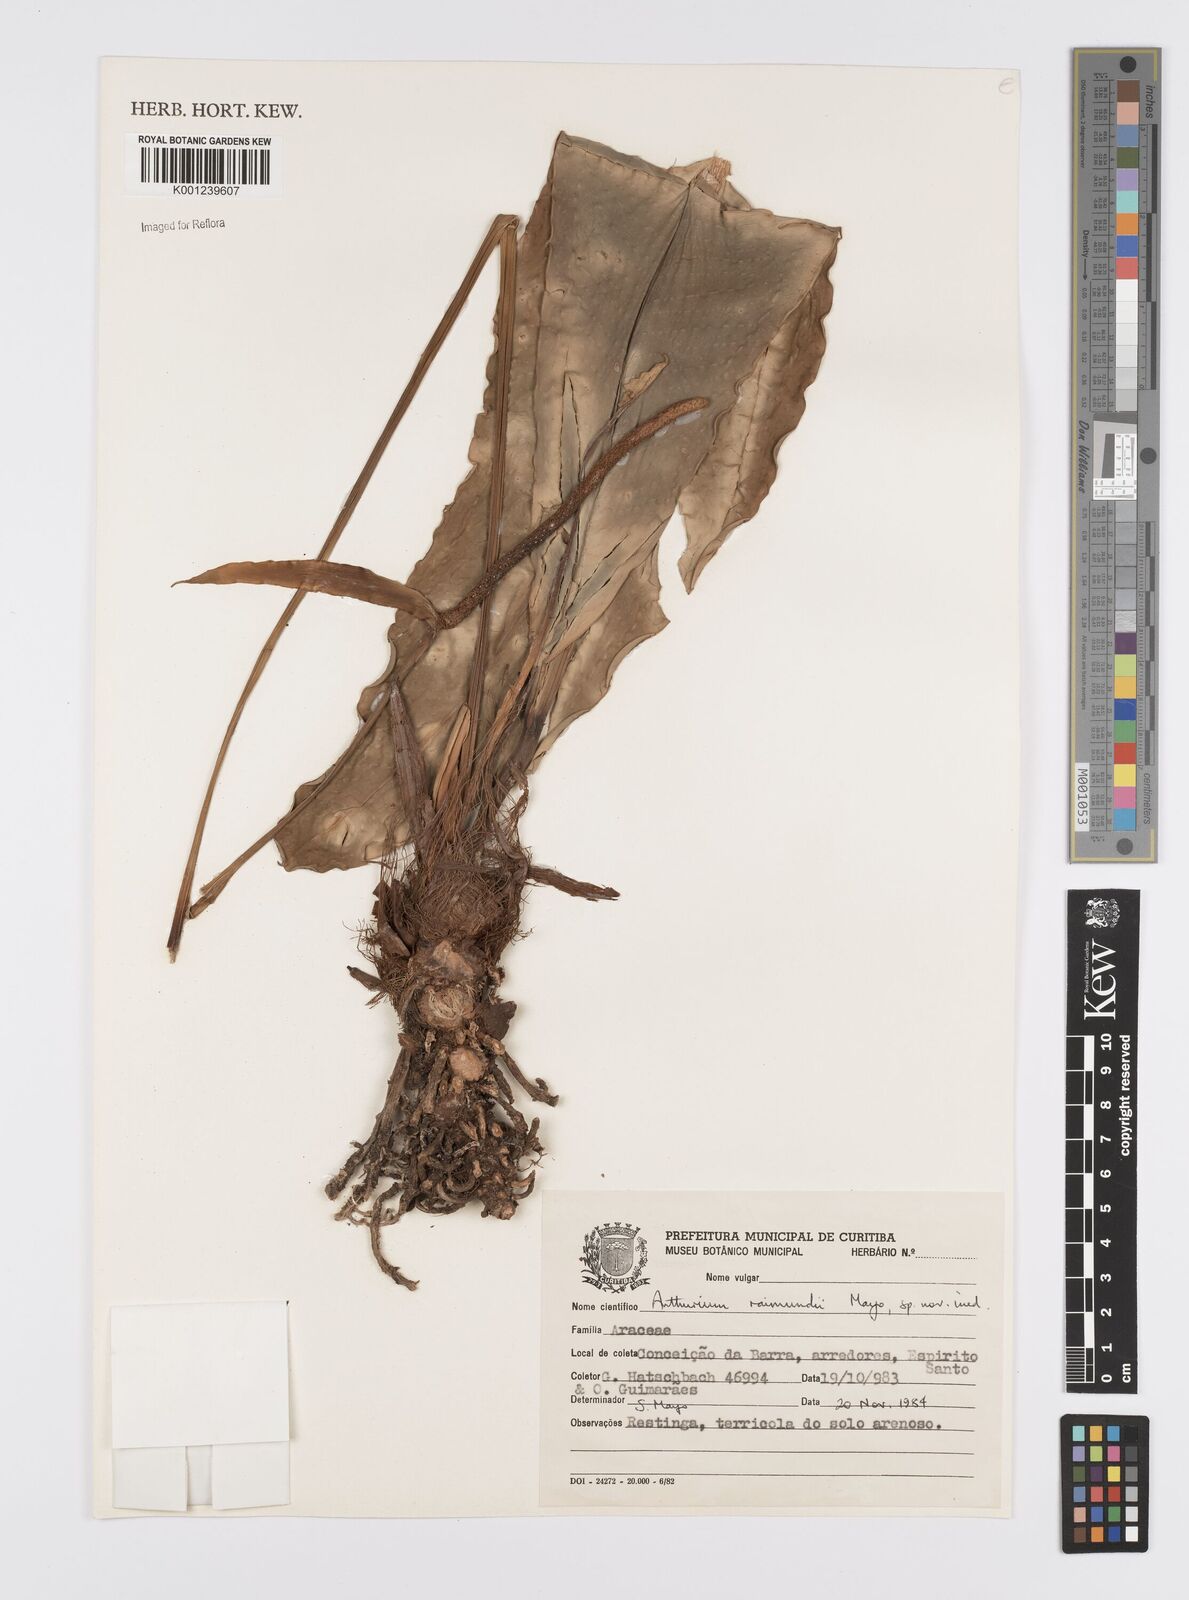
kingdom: Plantae
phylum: Tracheophyta
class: Liliopsida
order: Alismatales
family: Araceae
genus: Anthurium
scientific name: Anthurium raimundii
